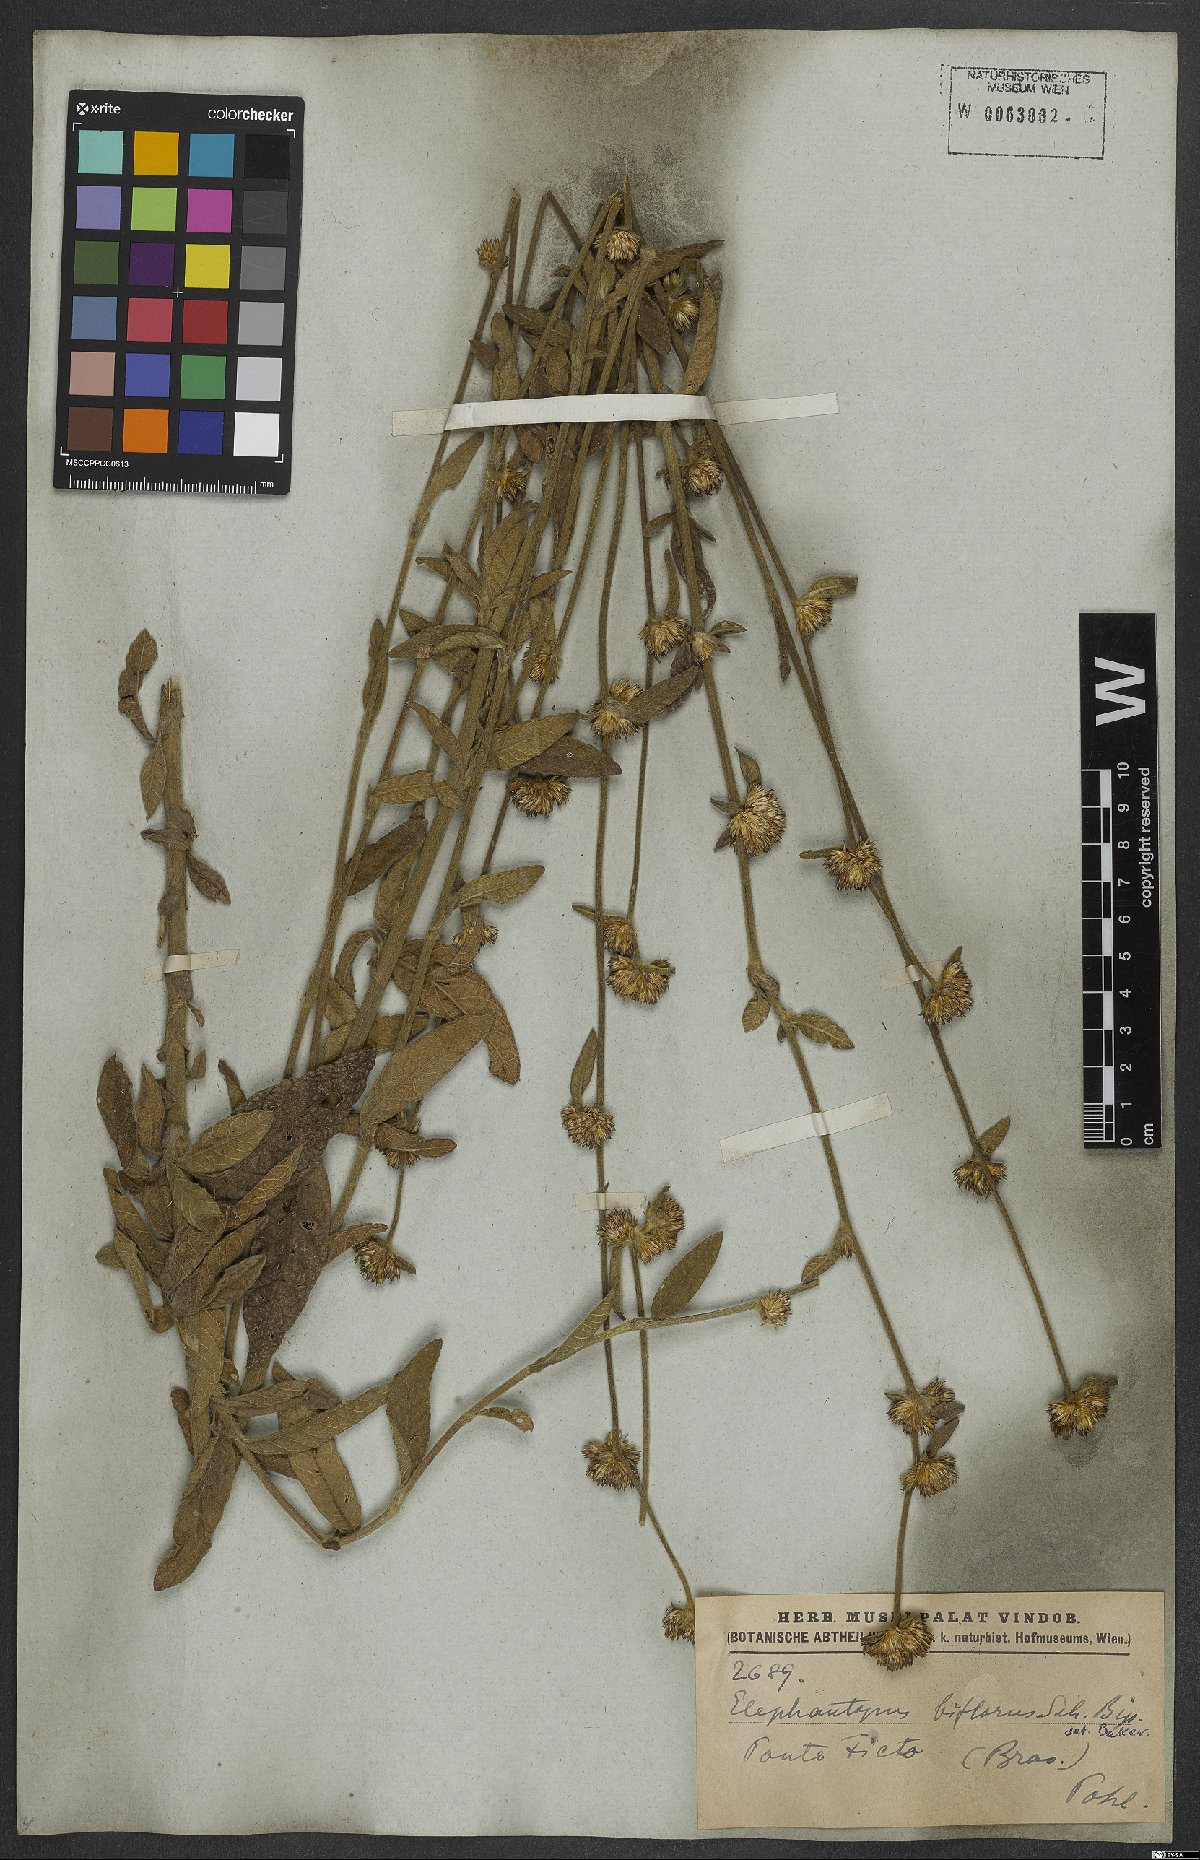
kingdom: Plantae
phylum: Tracheophyta
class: Magnoliopsida
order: Asterales
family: Asteraceae
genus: Elephantopus
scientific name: Elephantopus biflorus
